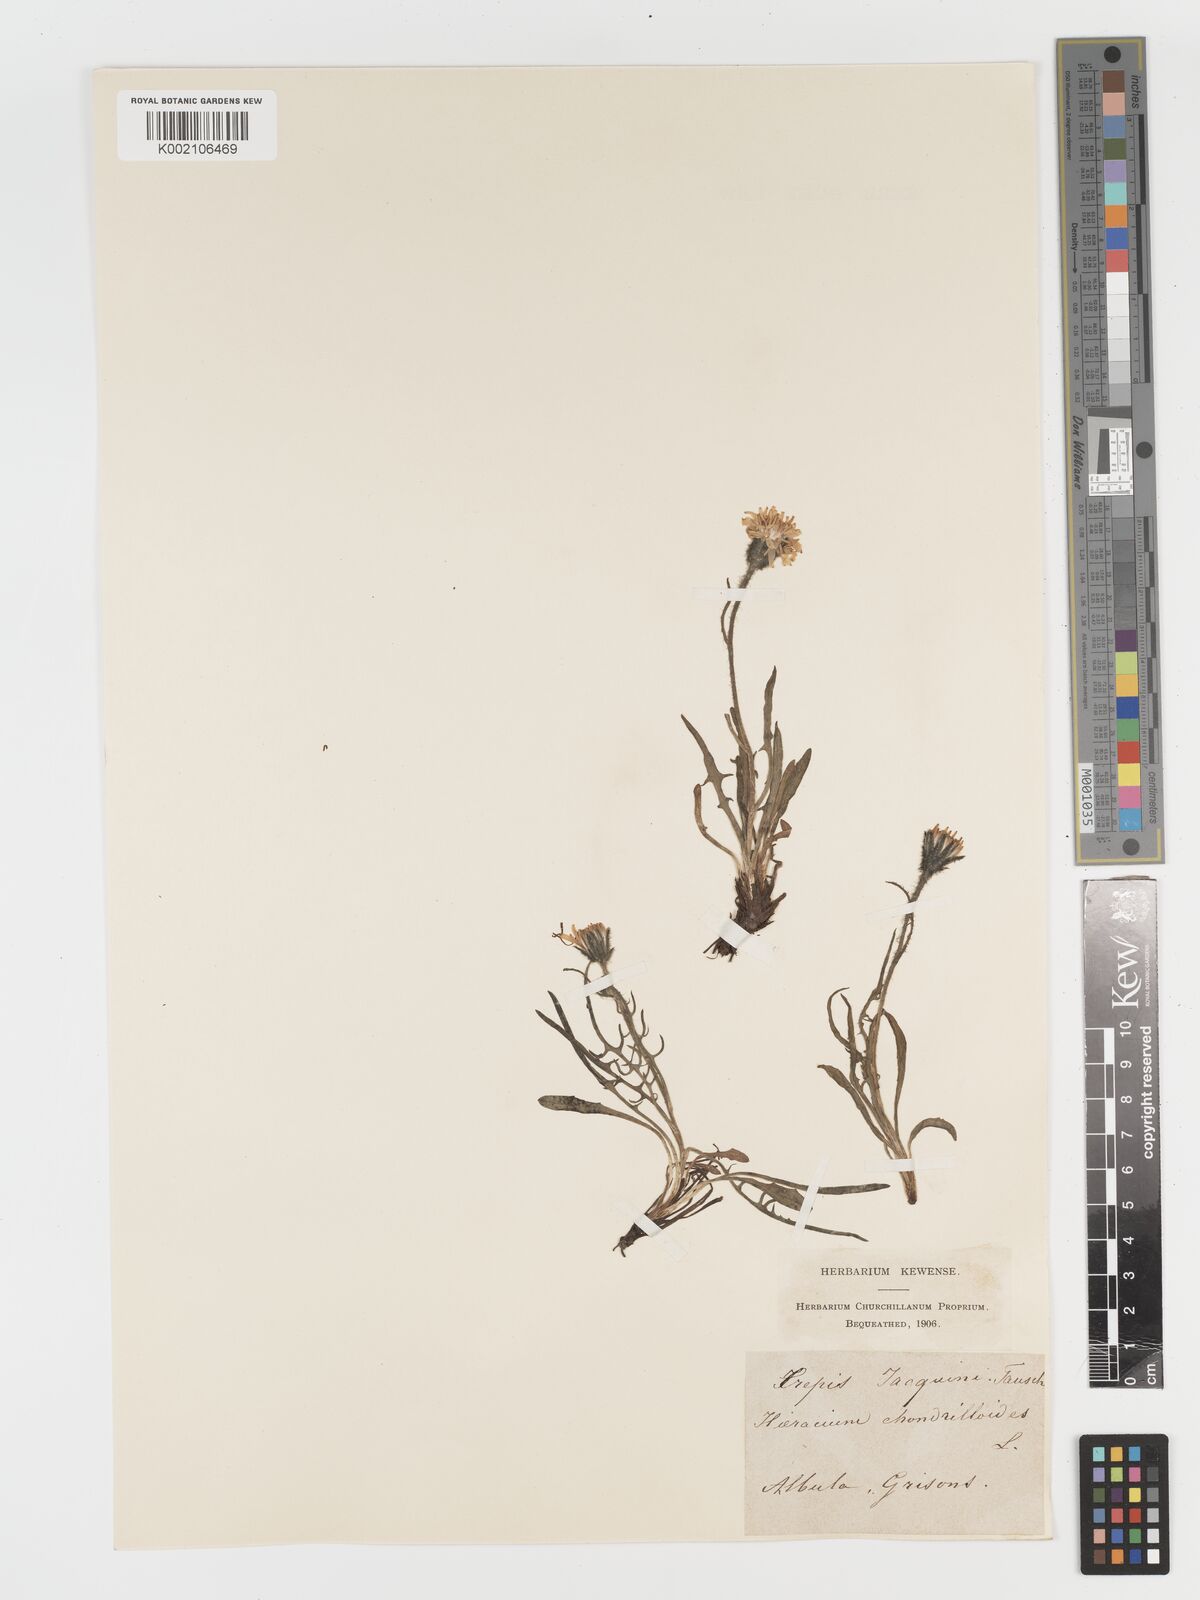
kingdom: Plantae
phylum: Tracheophyta
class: Magnoliopsida
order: Asterales
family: Asteraceae
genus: Crepis
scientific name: Crepis jacquinii
